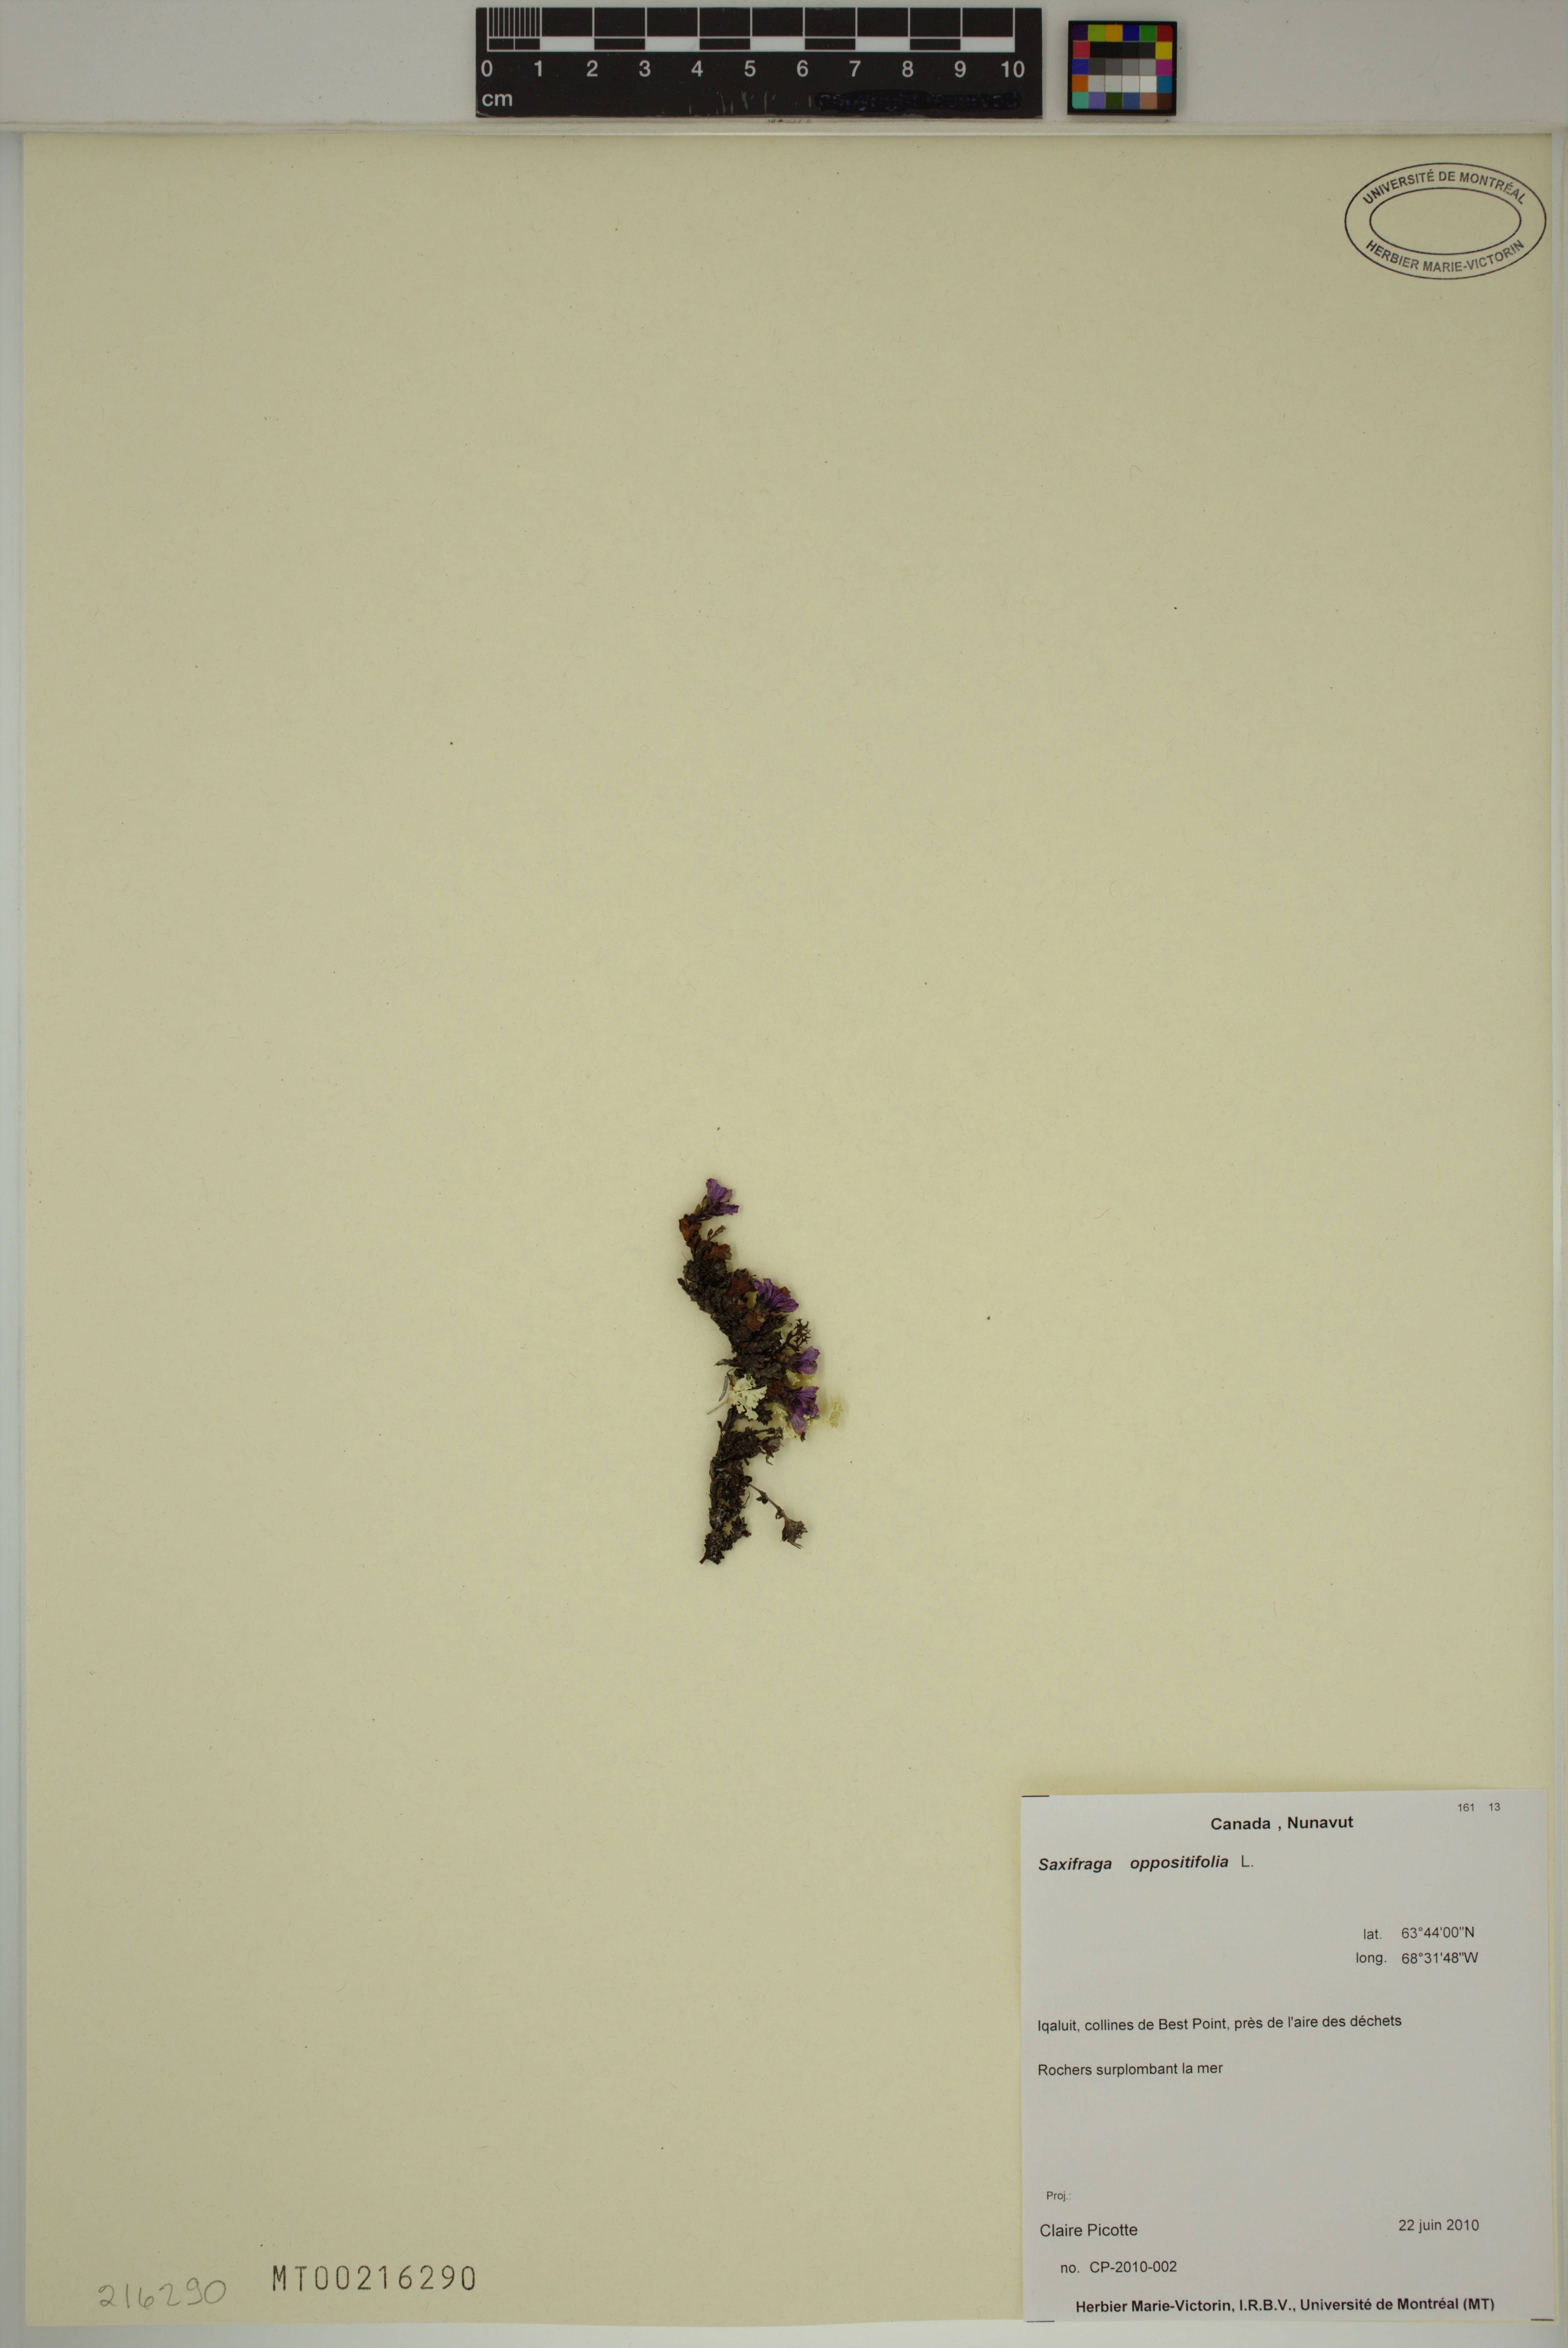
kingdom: Plantae
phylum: Tracheophyta
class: Magnoliopsida
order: Saxifragales
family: Saxifragaceae
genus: Saxifraga
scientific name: Saxifraga oppositifolia
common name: Purple saxifrage
